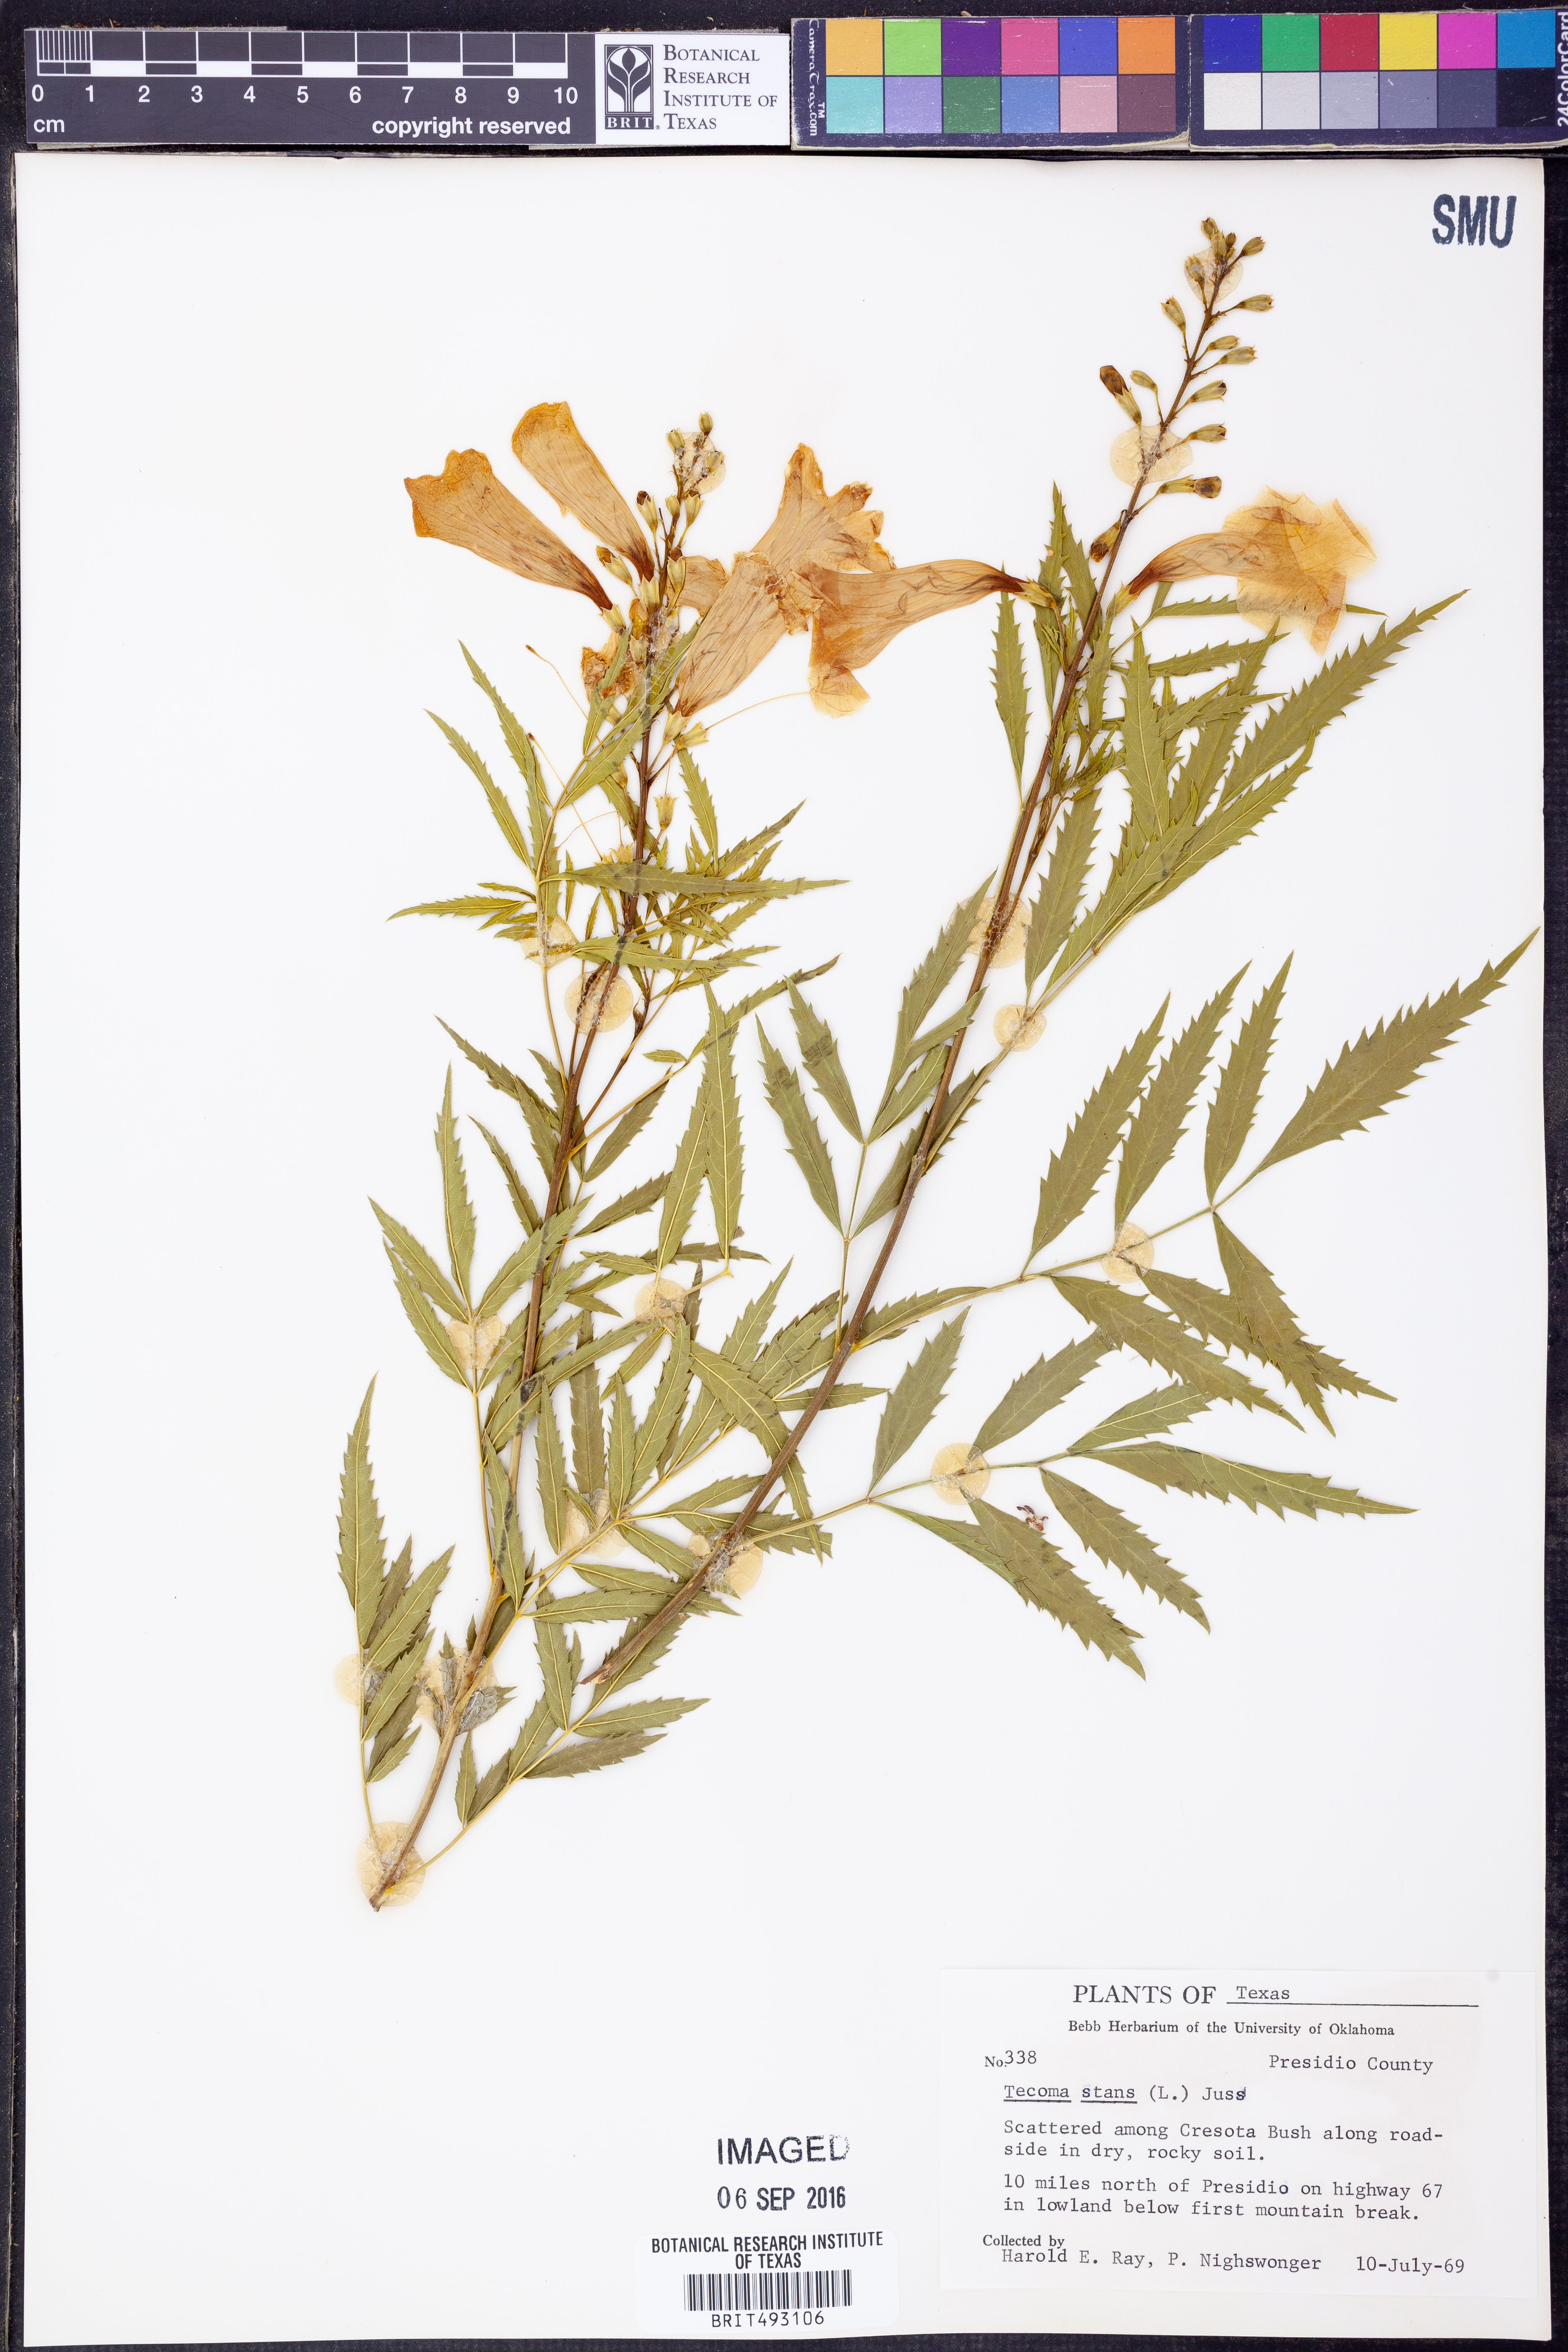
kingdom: Plantae
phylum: Tracheophyta
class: Magnoliopsida
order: Lamiales
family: Bignoniaceae
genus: Tecoma
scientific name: Tecoma stans
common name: Yellow trumpetbush
